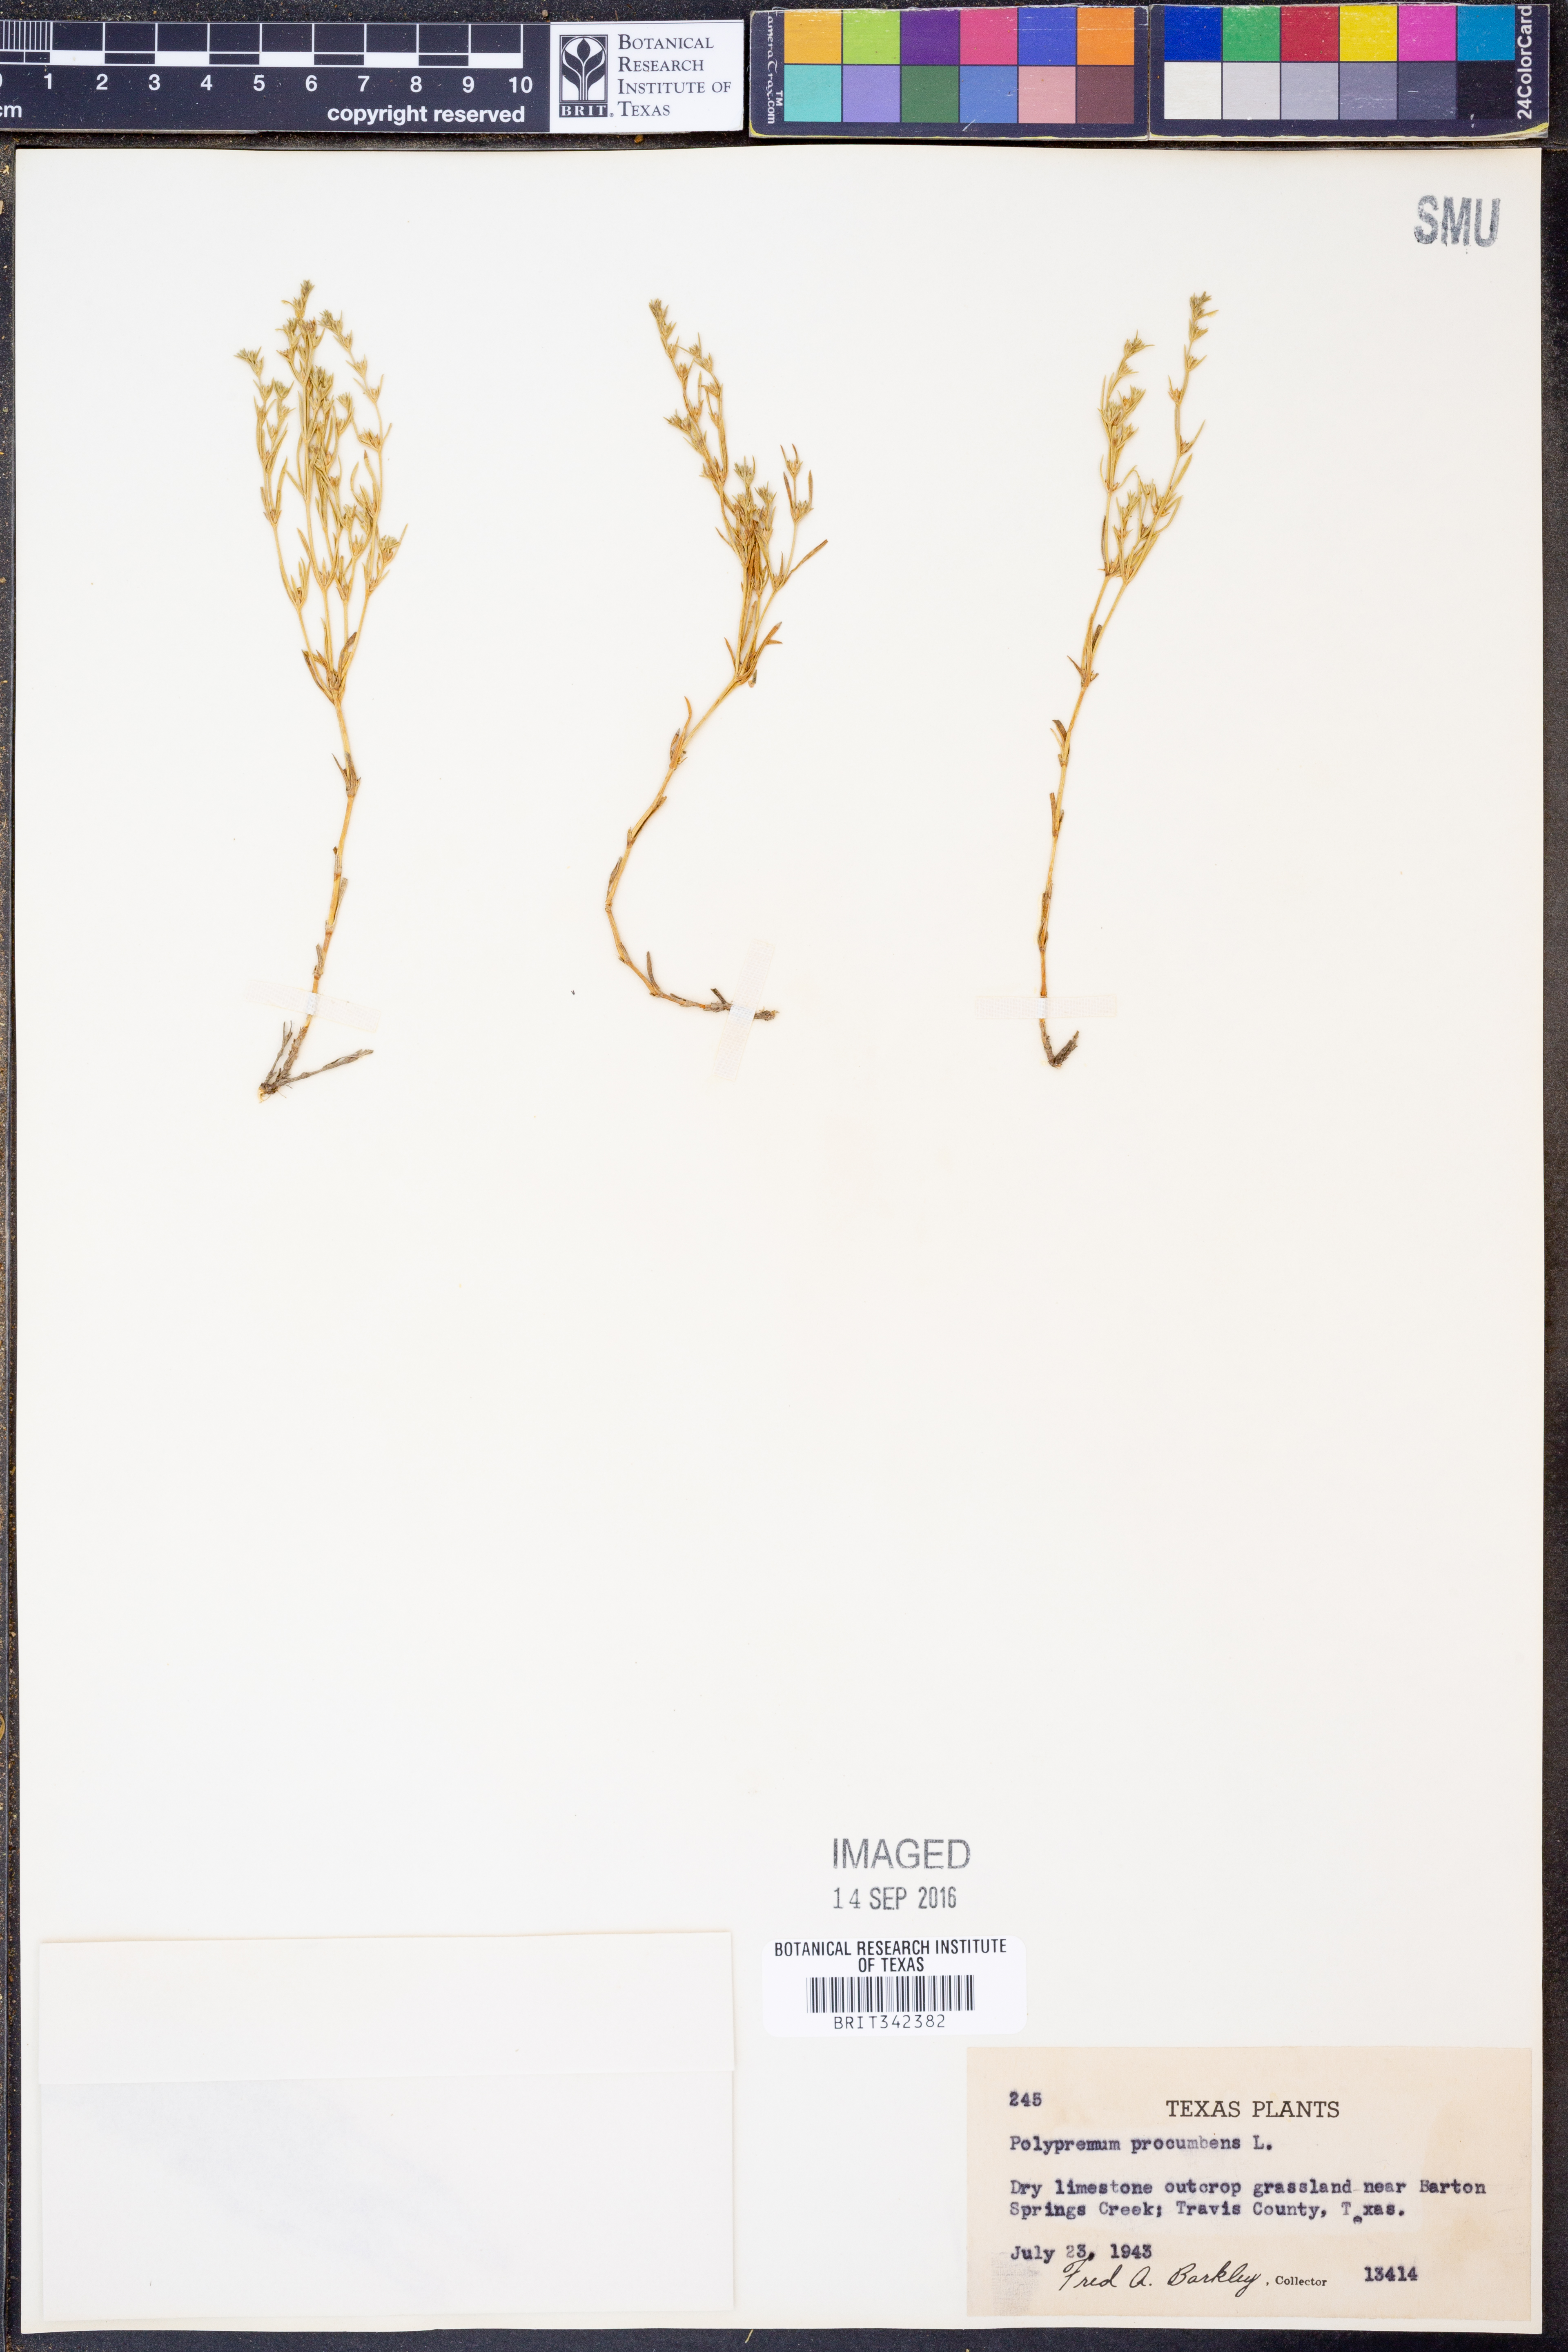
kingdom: Plantae
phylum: Tracheophyta
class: Magnoliopsida
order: Lamiales
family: Tetrachondraceae
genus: Polypremum
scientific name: Polypremum procumbens
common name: Juniper-leaf
